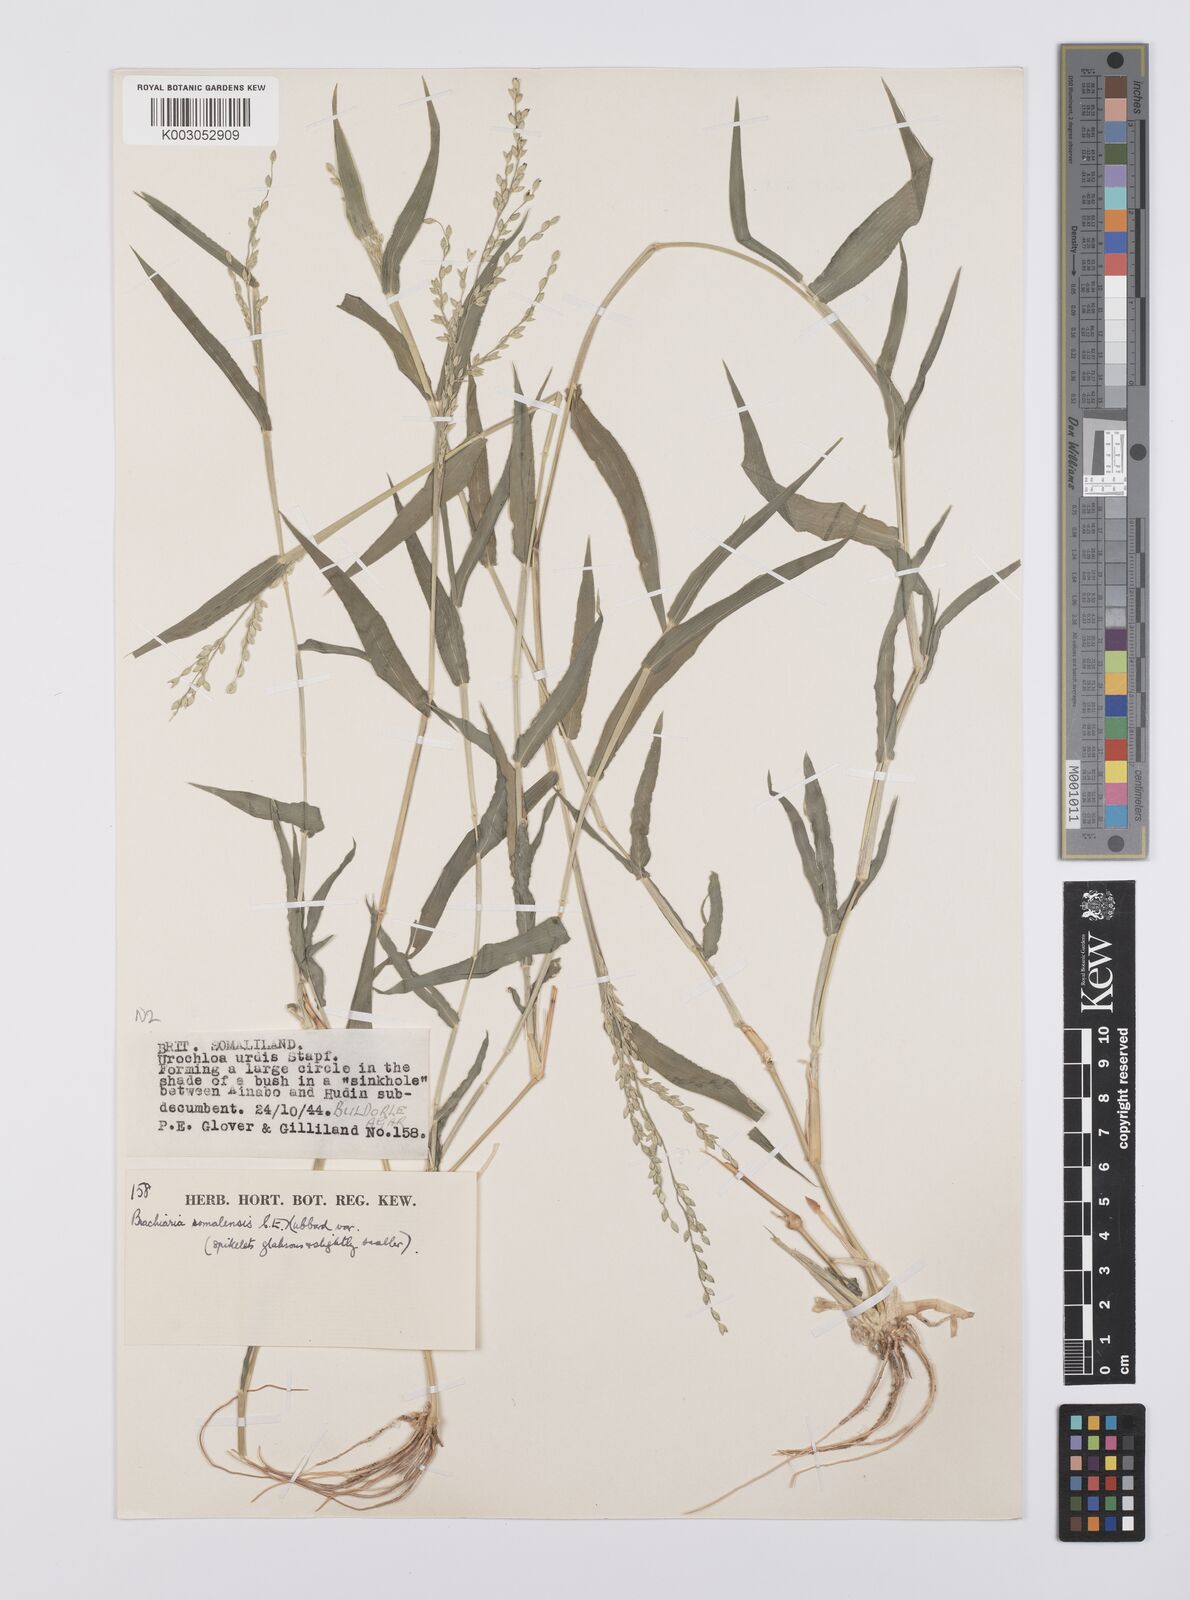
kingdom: Plantae
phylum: Tracheophyta
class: Liliopsida
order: Poales
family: Poaceae
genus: Urochloa
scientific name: Urochloa ovalis
